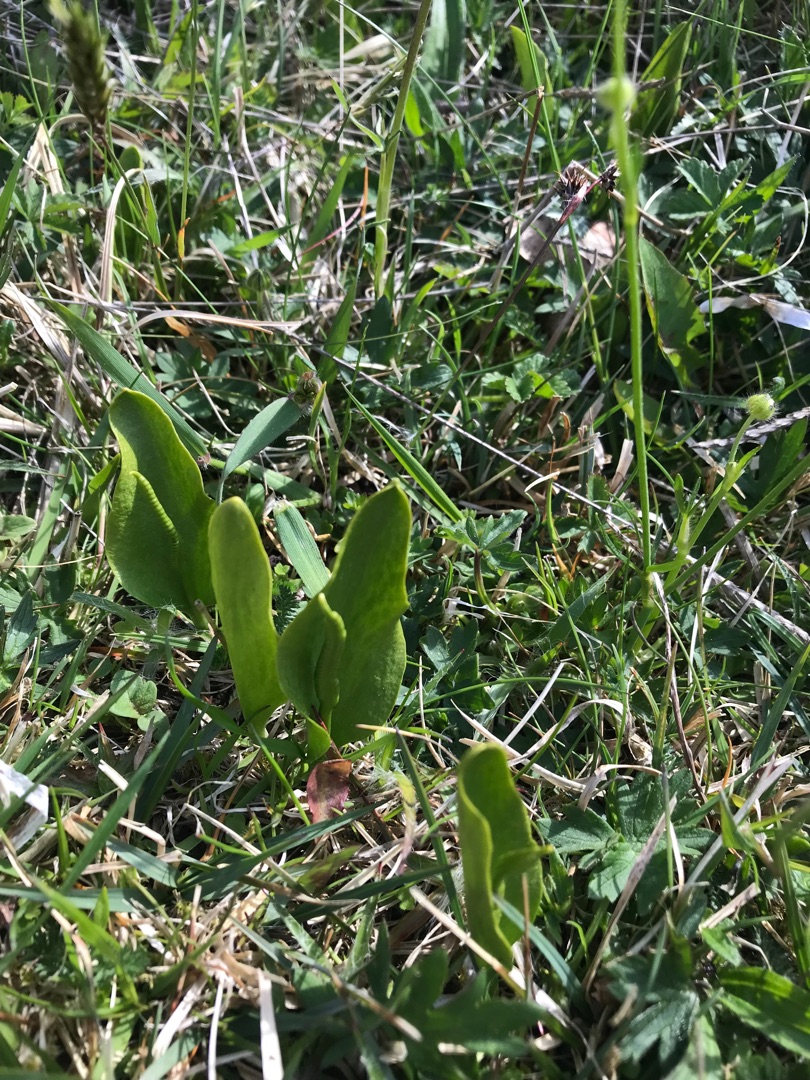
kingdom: Plantae
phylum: Tracheophyta
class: Polypodiopsida
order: Ophioglossales
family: Ophioglossaceae
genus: Ophioglossum
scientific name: Ophioglossum vulgatum
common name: Slangetunge
